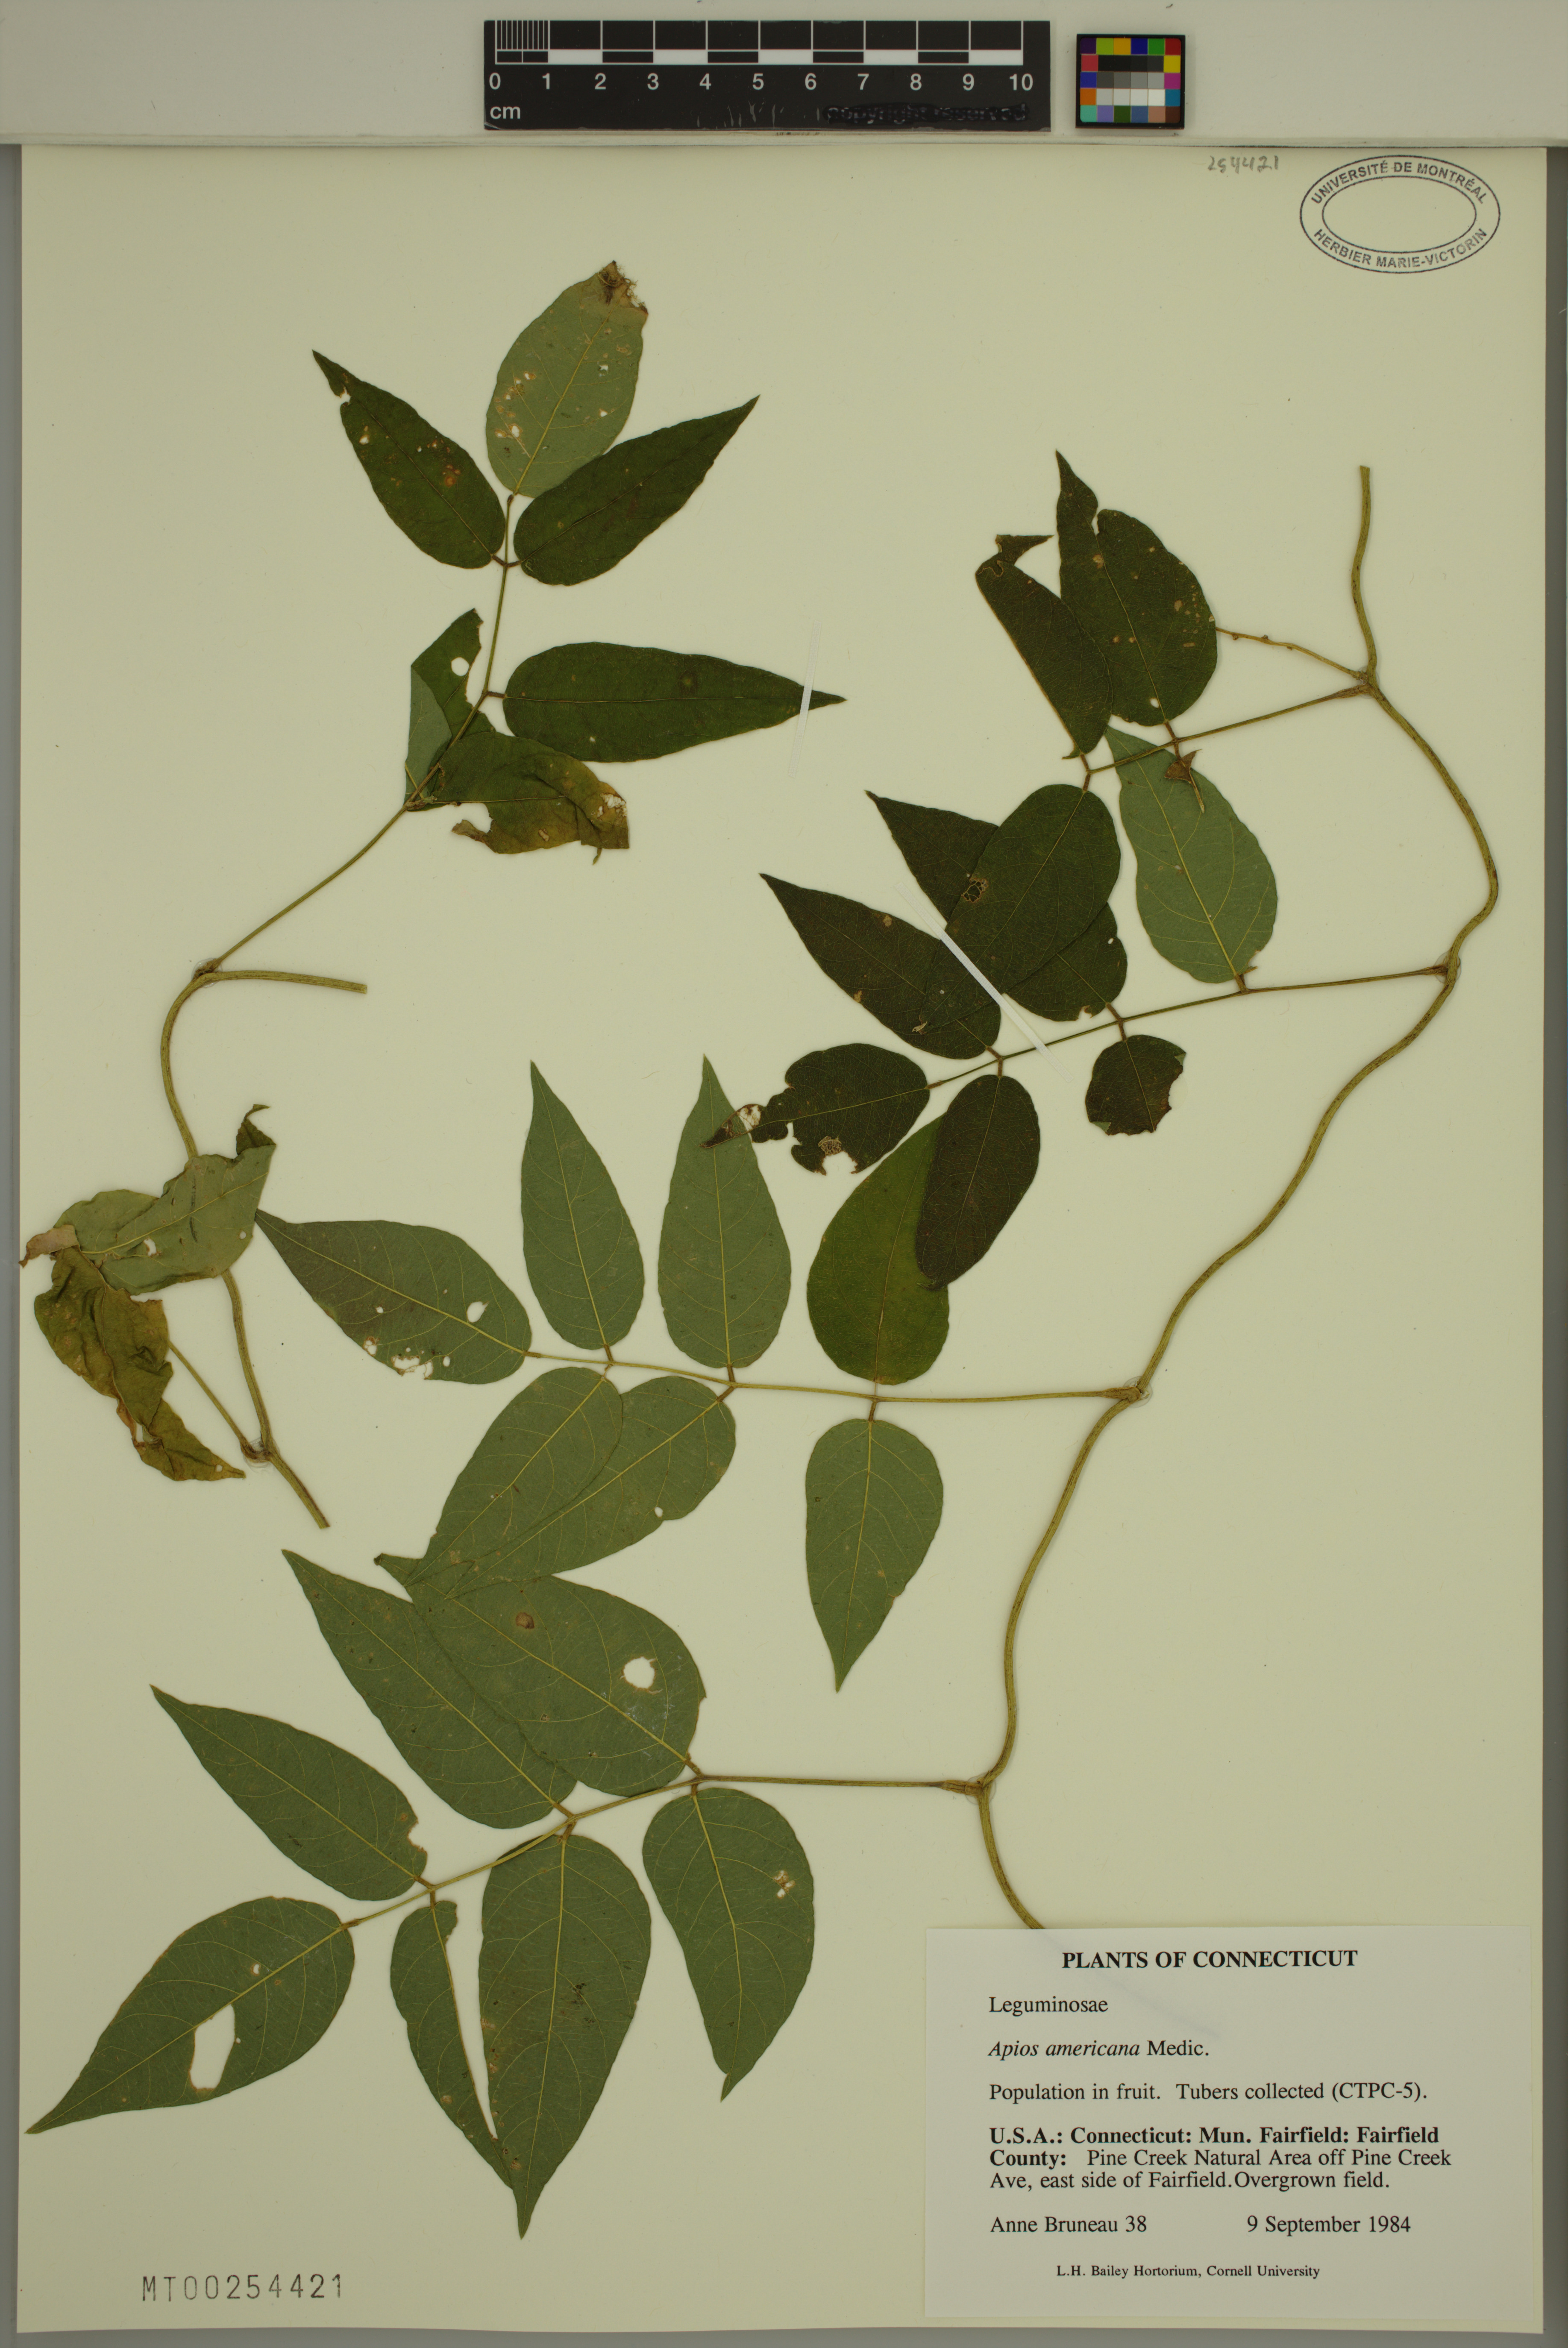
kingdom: Plantae
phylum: Tracheophyta
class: Magnoliopsida
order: Fabales
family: Fabaceae
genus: Apios
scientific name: Apios americana
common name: American potato-bean
